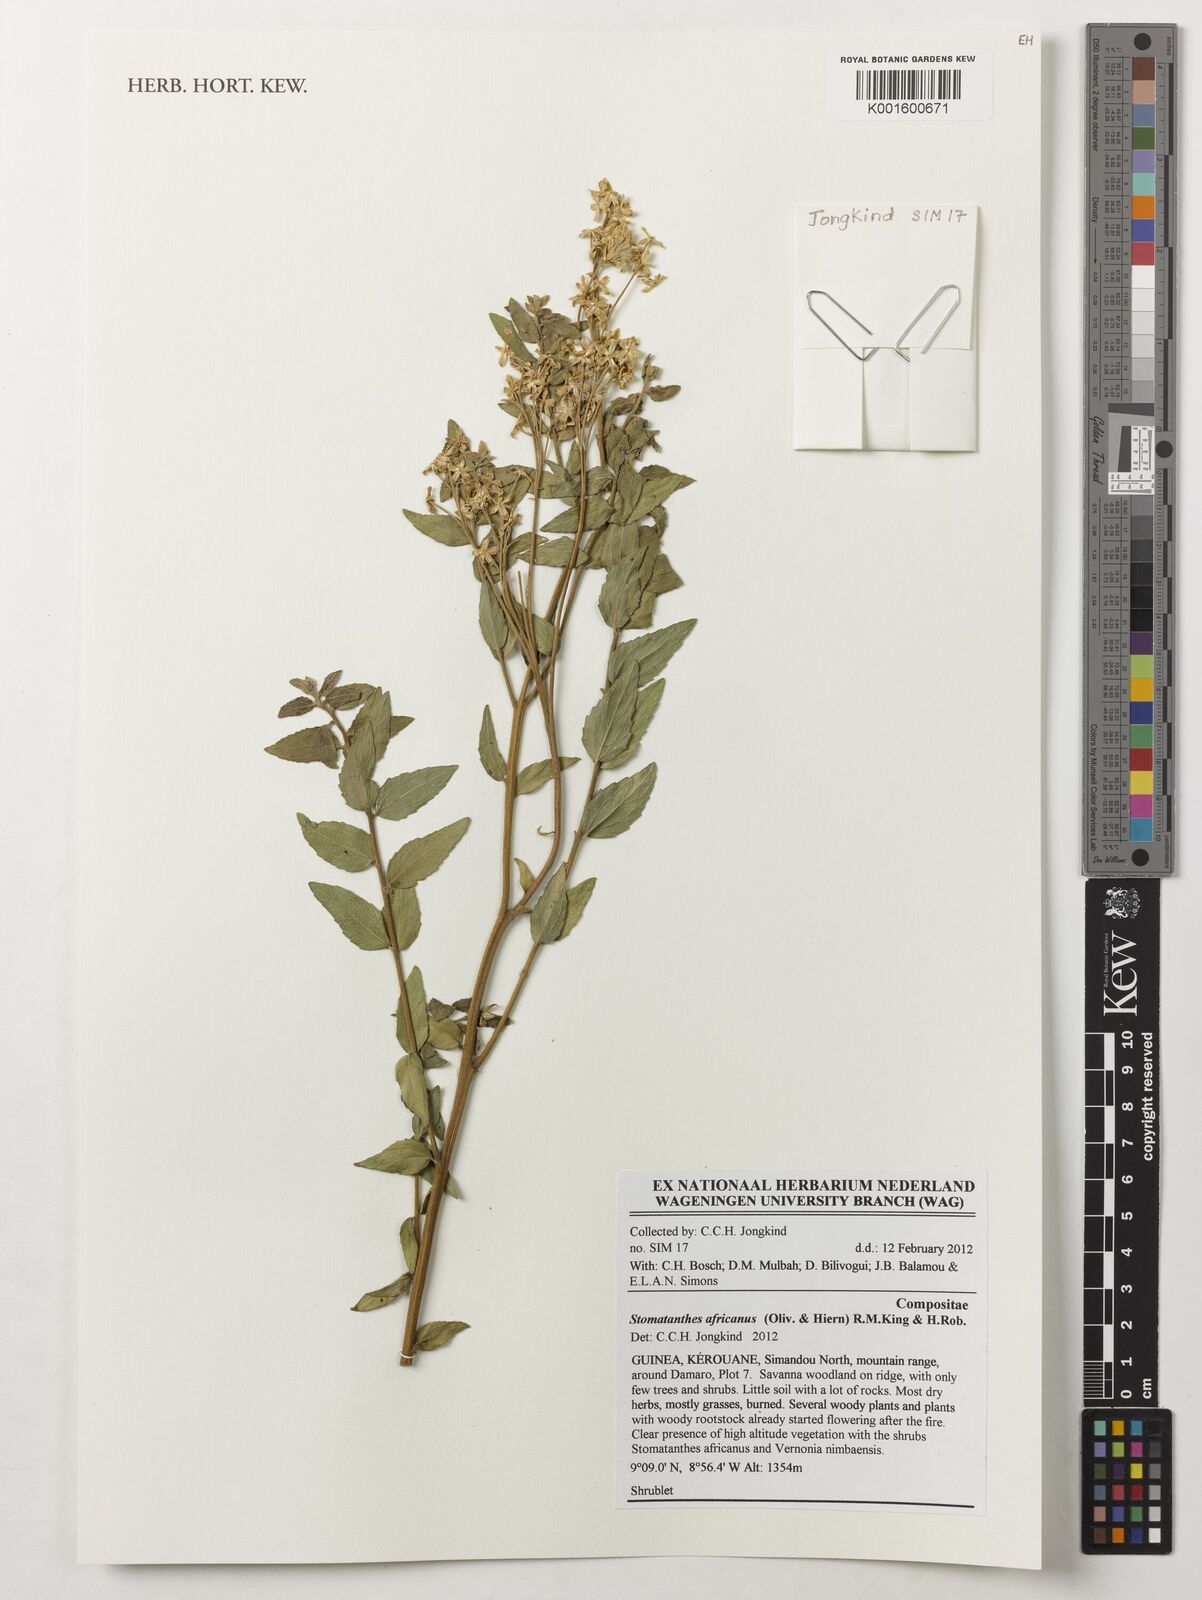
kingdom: Plantae
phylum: Tracheophyta
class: Magnoliopsida
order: Asterales
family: Asteraceae
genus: Stomatanthes
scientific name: Stomatanthes africanus
